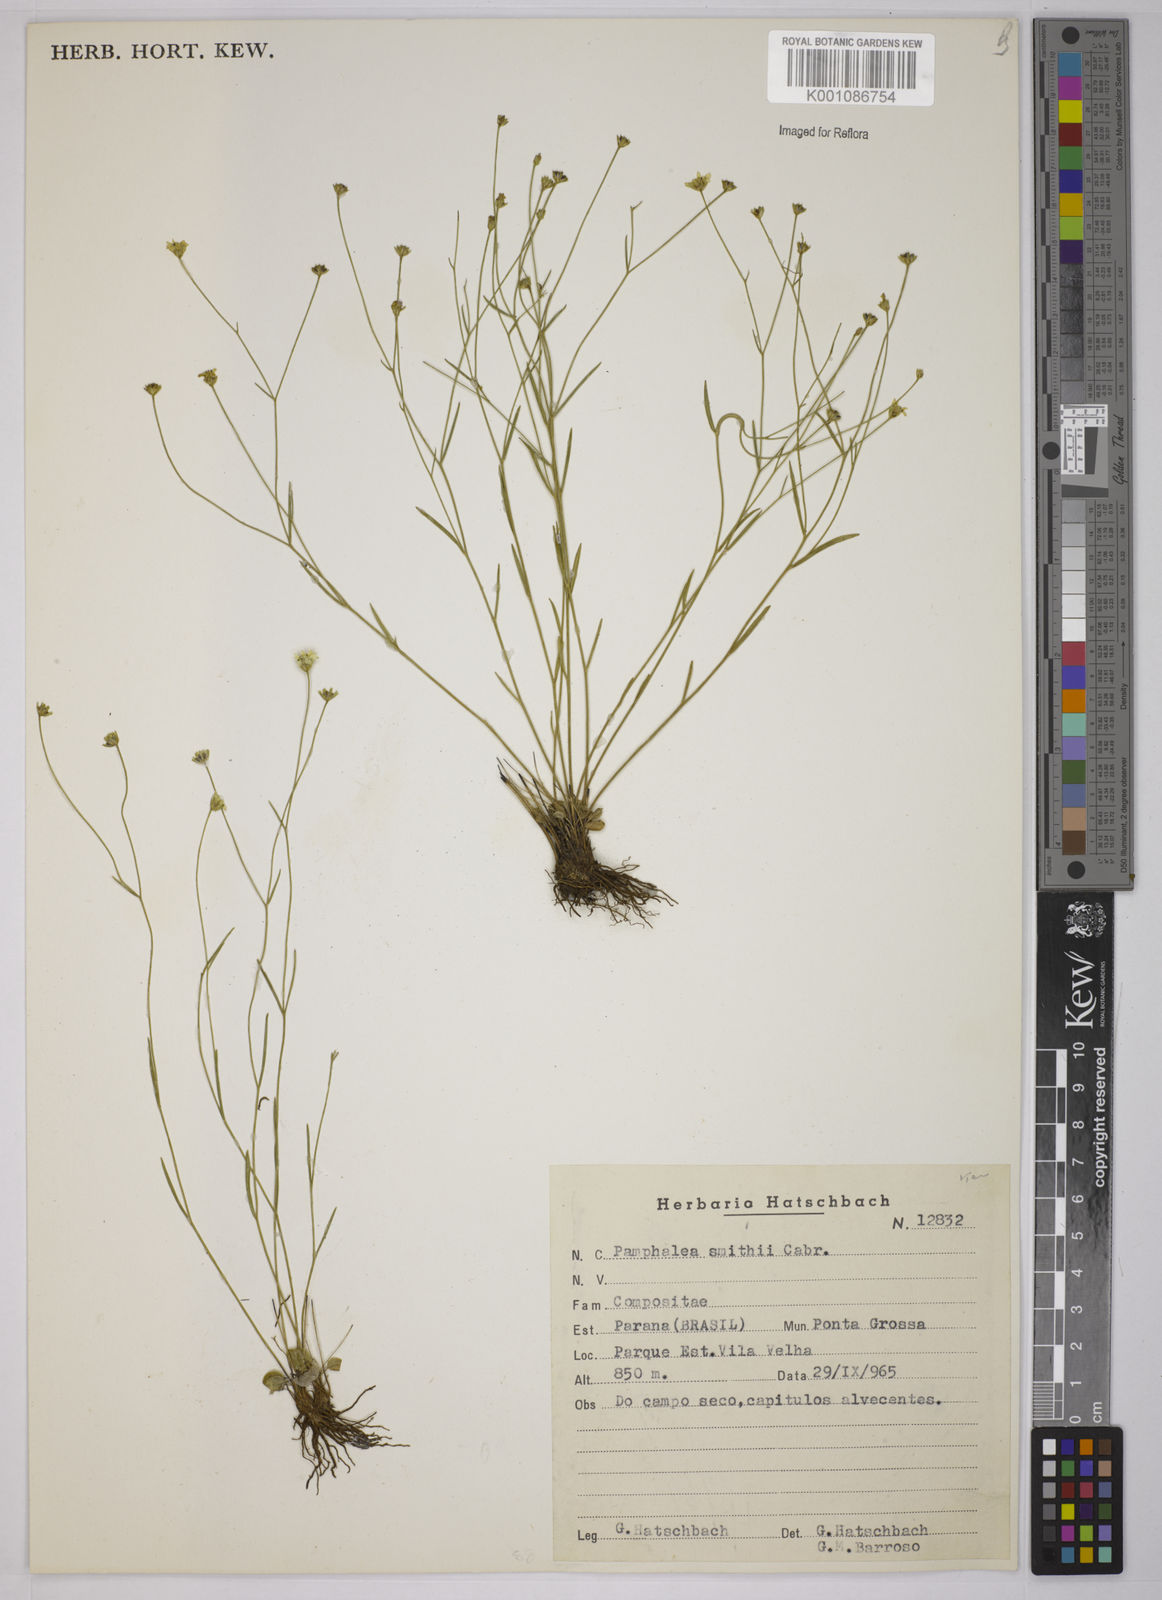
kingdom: Plantae
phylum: Tracheophyta
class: Magnoliopsida
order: Asterales
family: Asteraceae
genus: Panphalea
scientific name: Panphalea smithii
